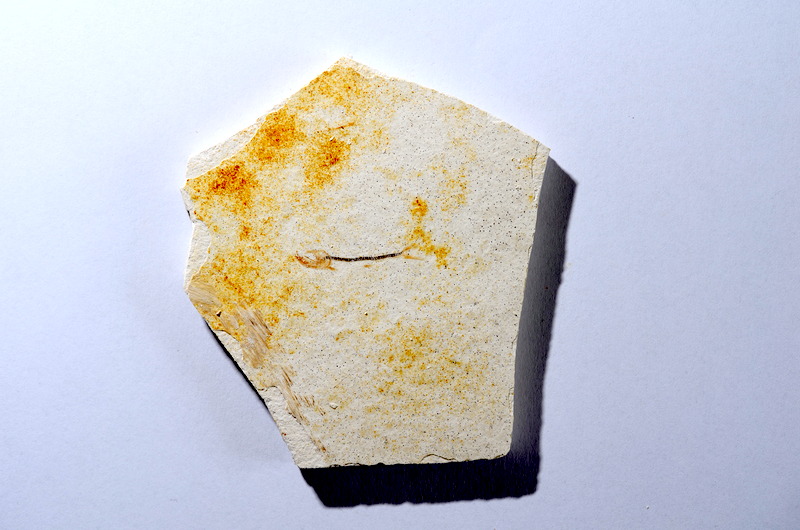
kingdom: Animalia
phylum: Chordata
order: Salmoniformes
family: Orthogonikleithridae
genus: Orthogonikleithrus
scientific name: Orthogonikleithrus hoelli
